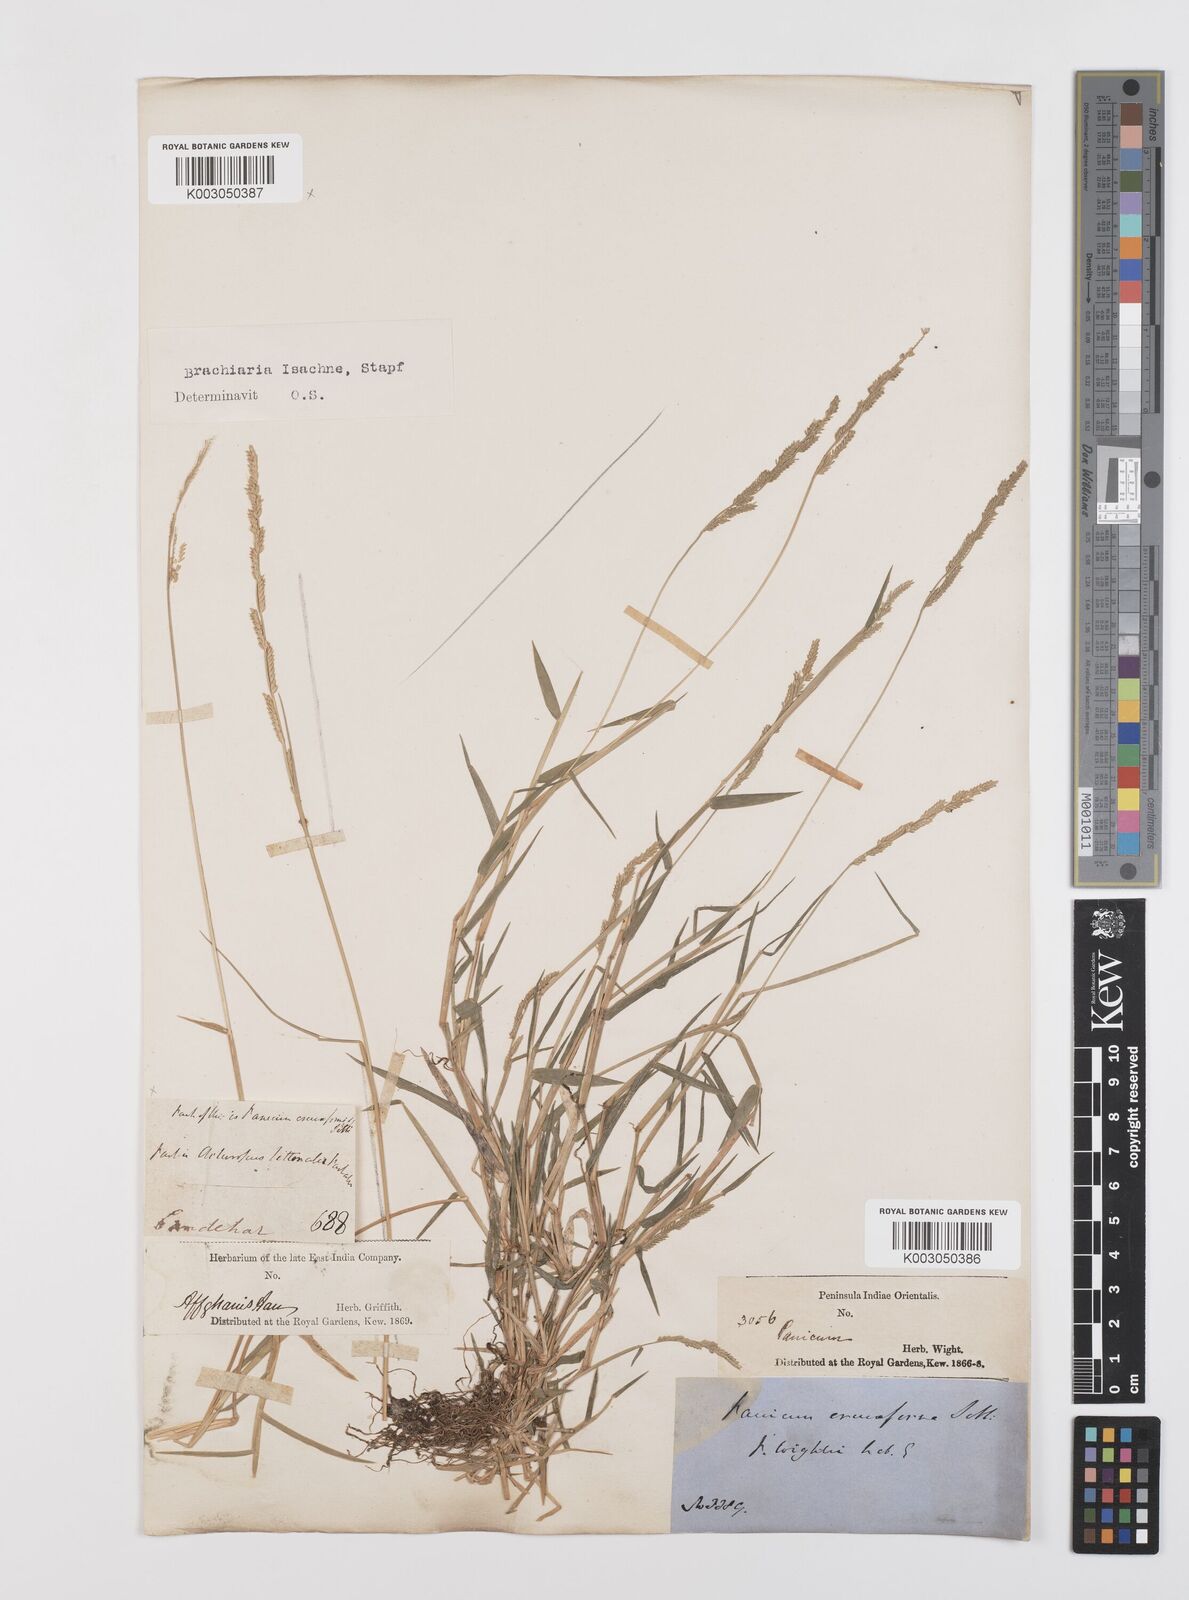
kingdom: Plantae
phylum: Tracheophyta
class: Liliopsida
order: Poales
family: Poaceae
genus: Moorochloa
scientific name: Moorochloa eruciformis
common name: Sweet signalgrass
